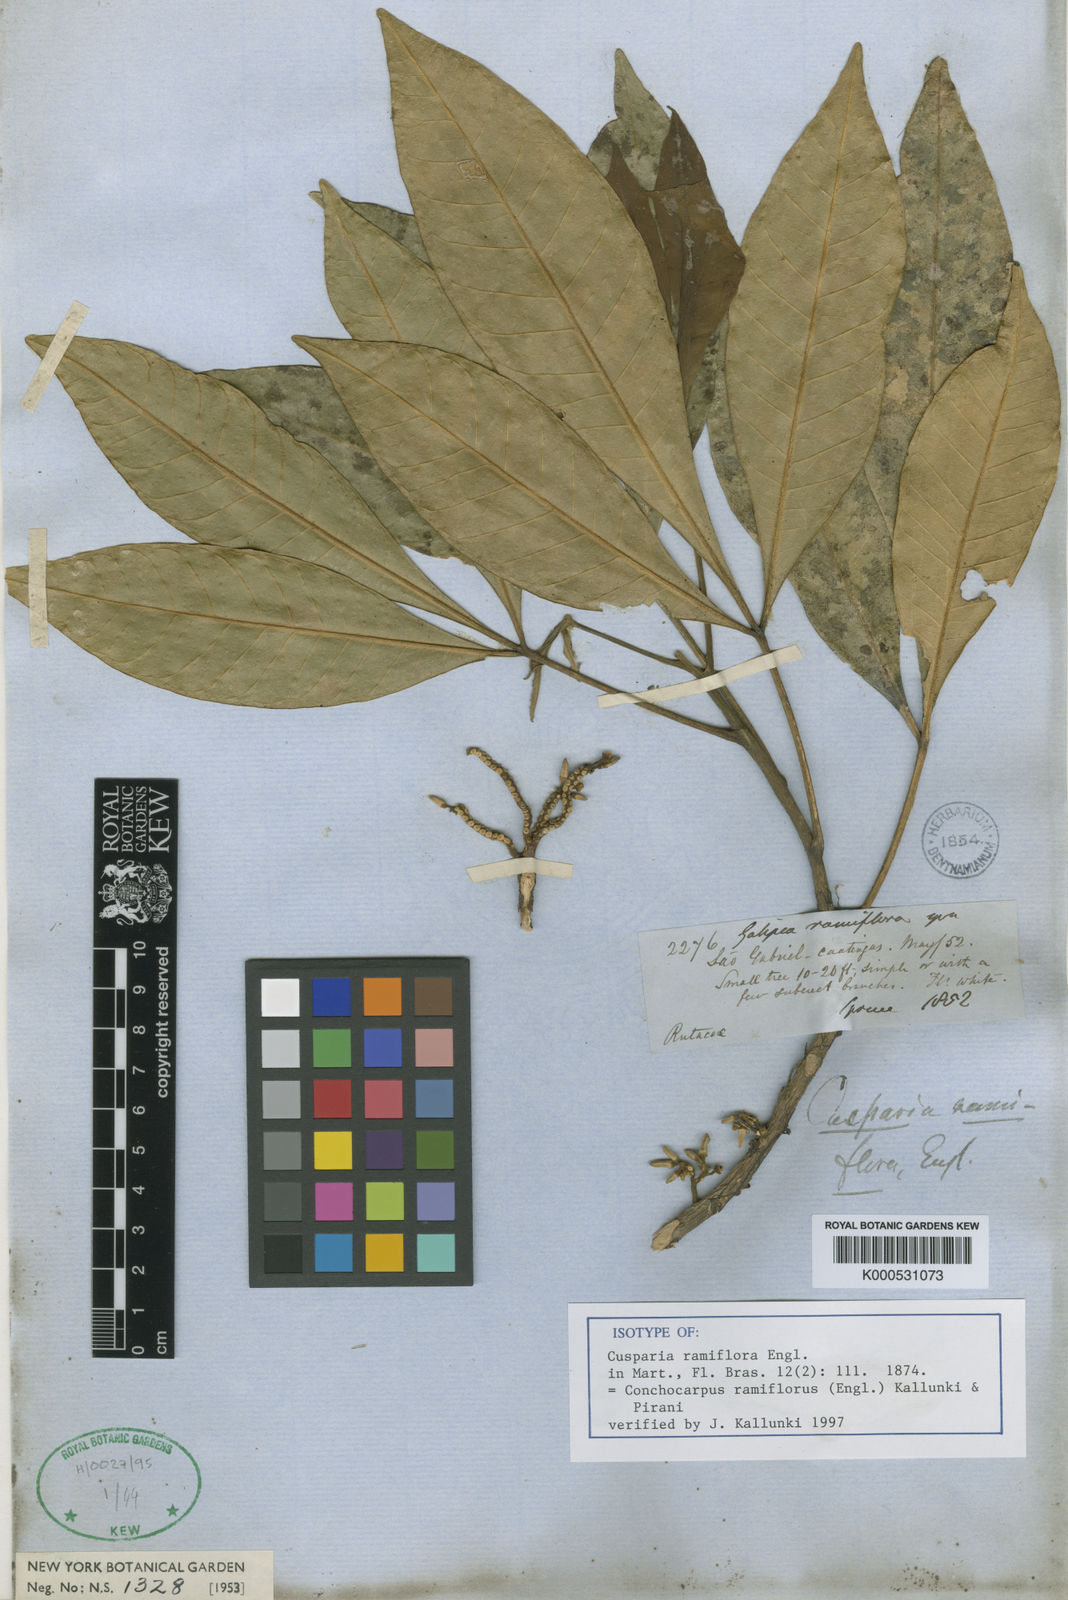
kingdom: Plantae
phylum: Tracheophyta
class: Magnoliopsida
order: Sapindales
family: Rutaceae
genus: Conchocarpus
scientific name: Conchocarpus ramiflorus
